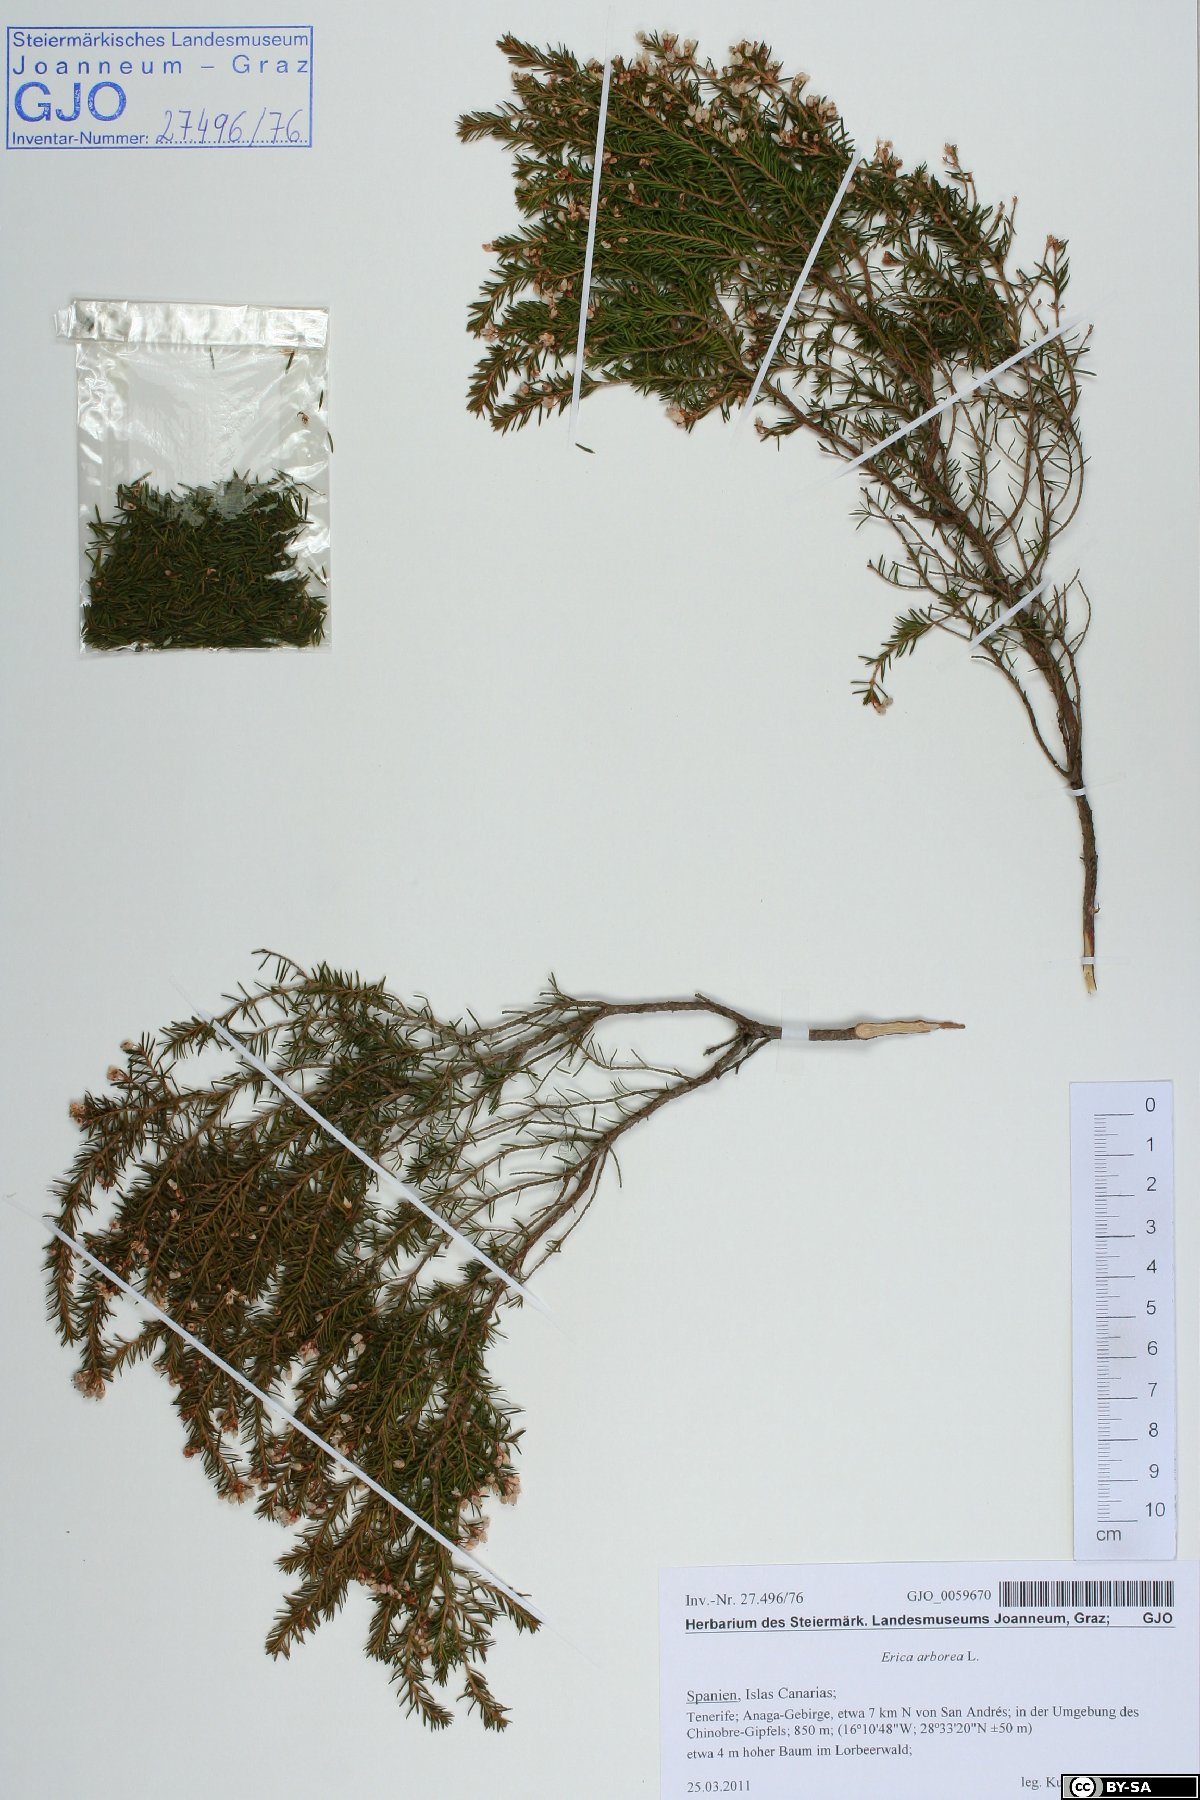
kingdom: Plantae
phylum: Tracheophyta
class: Magnoliopsida
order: Ericales
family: Ericaceae
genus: Erica
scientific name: Erica arborea
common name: Tree heath
